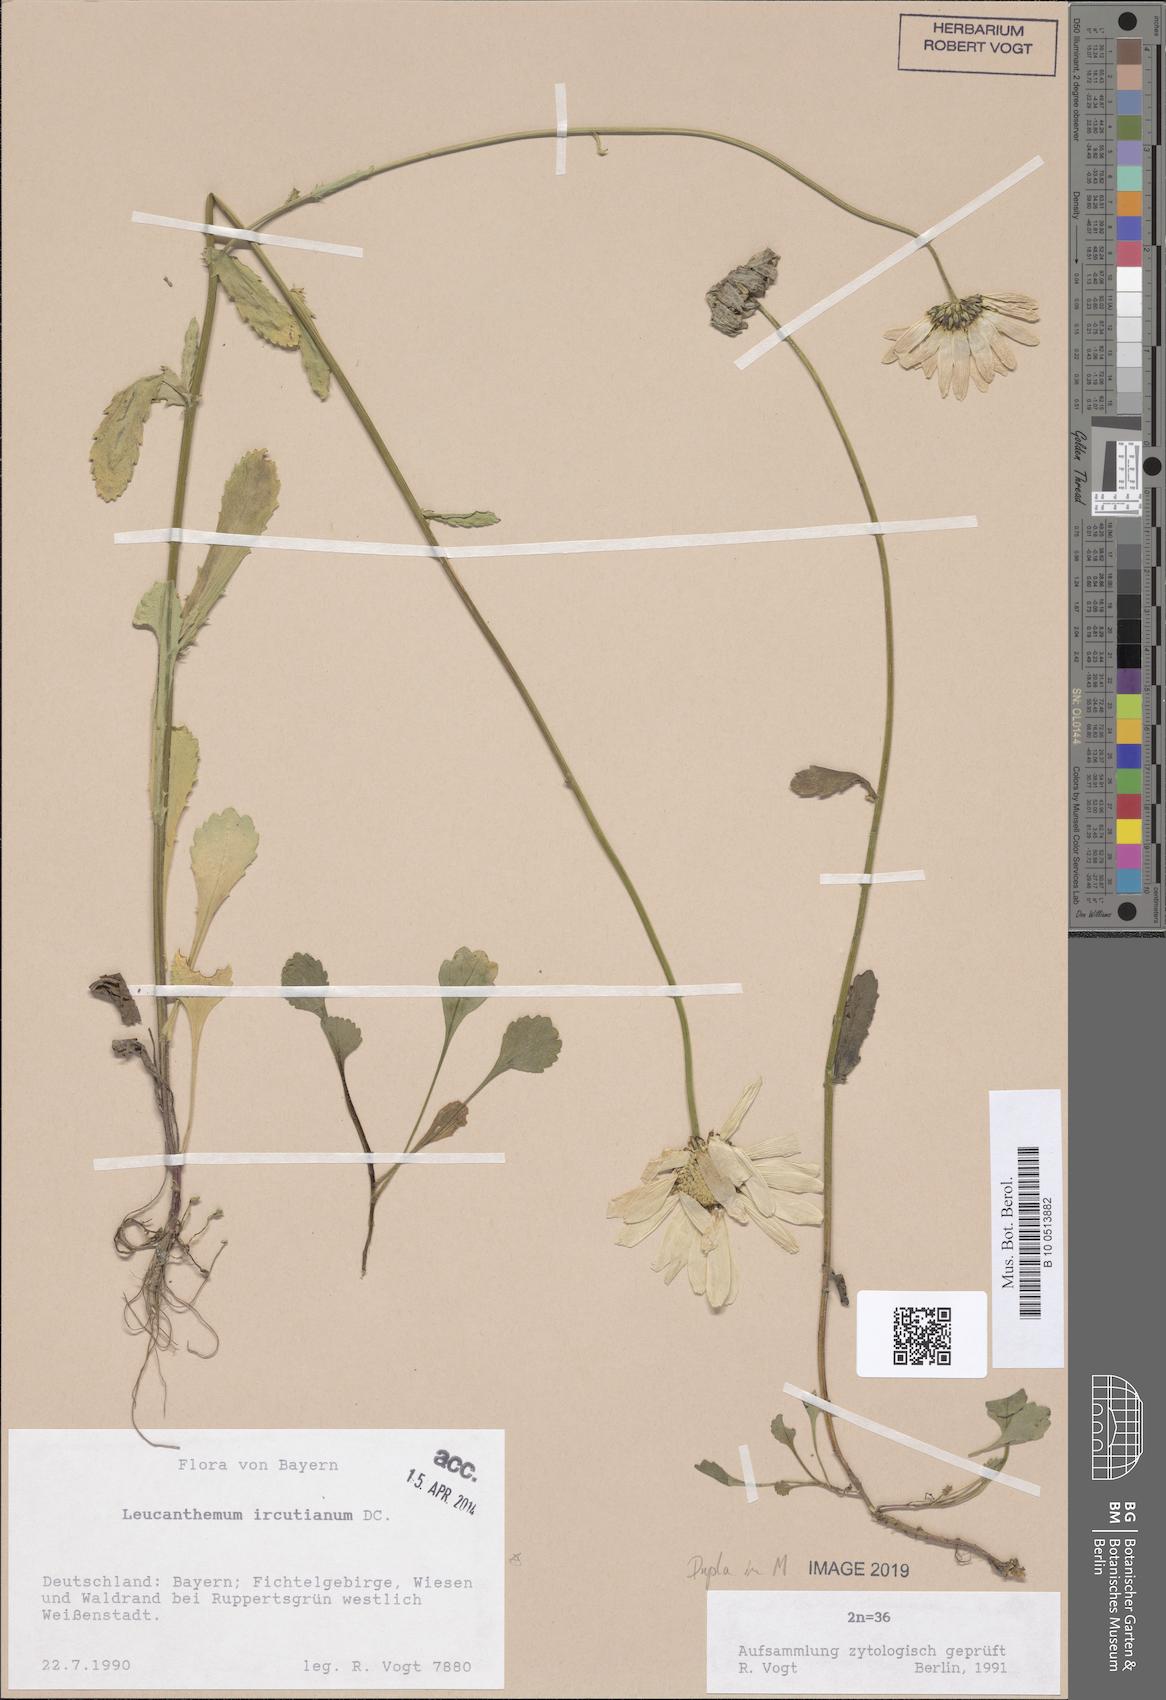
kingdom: Plantae
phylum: Tracheophyta
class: Magnoliopsida
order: Asterales
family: Asteraceae
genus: Leucanthemum
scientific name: Leucanthemum ircutianum
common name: Daisy
